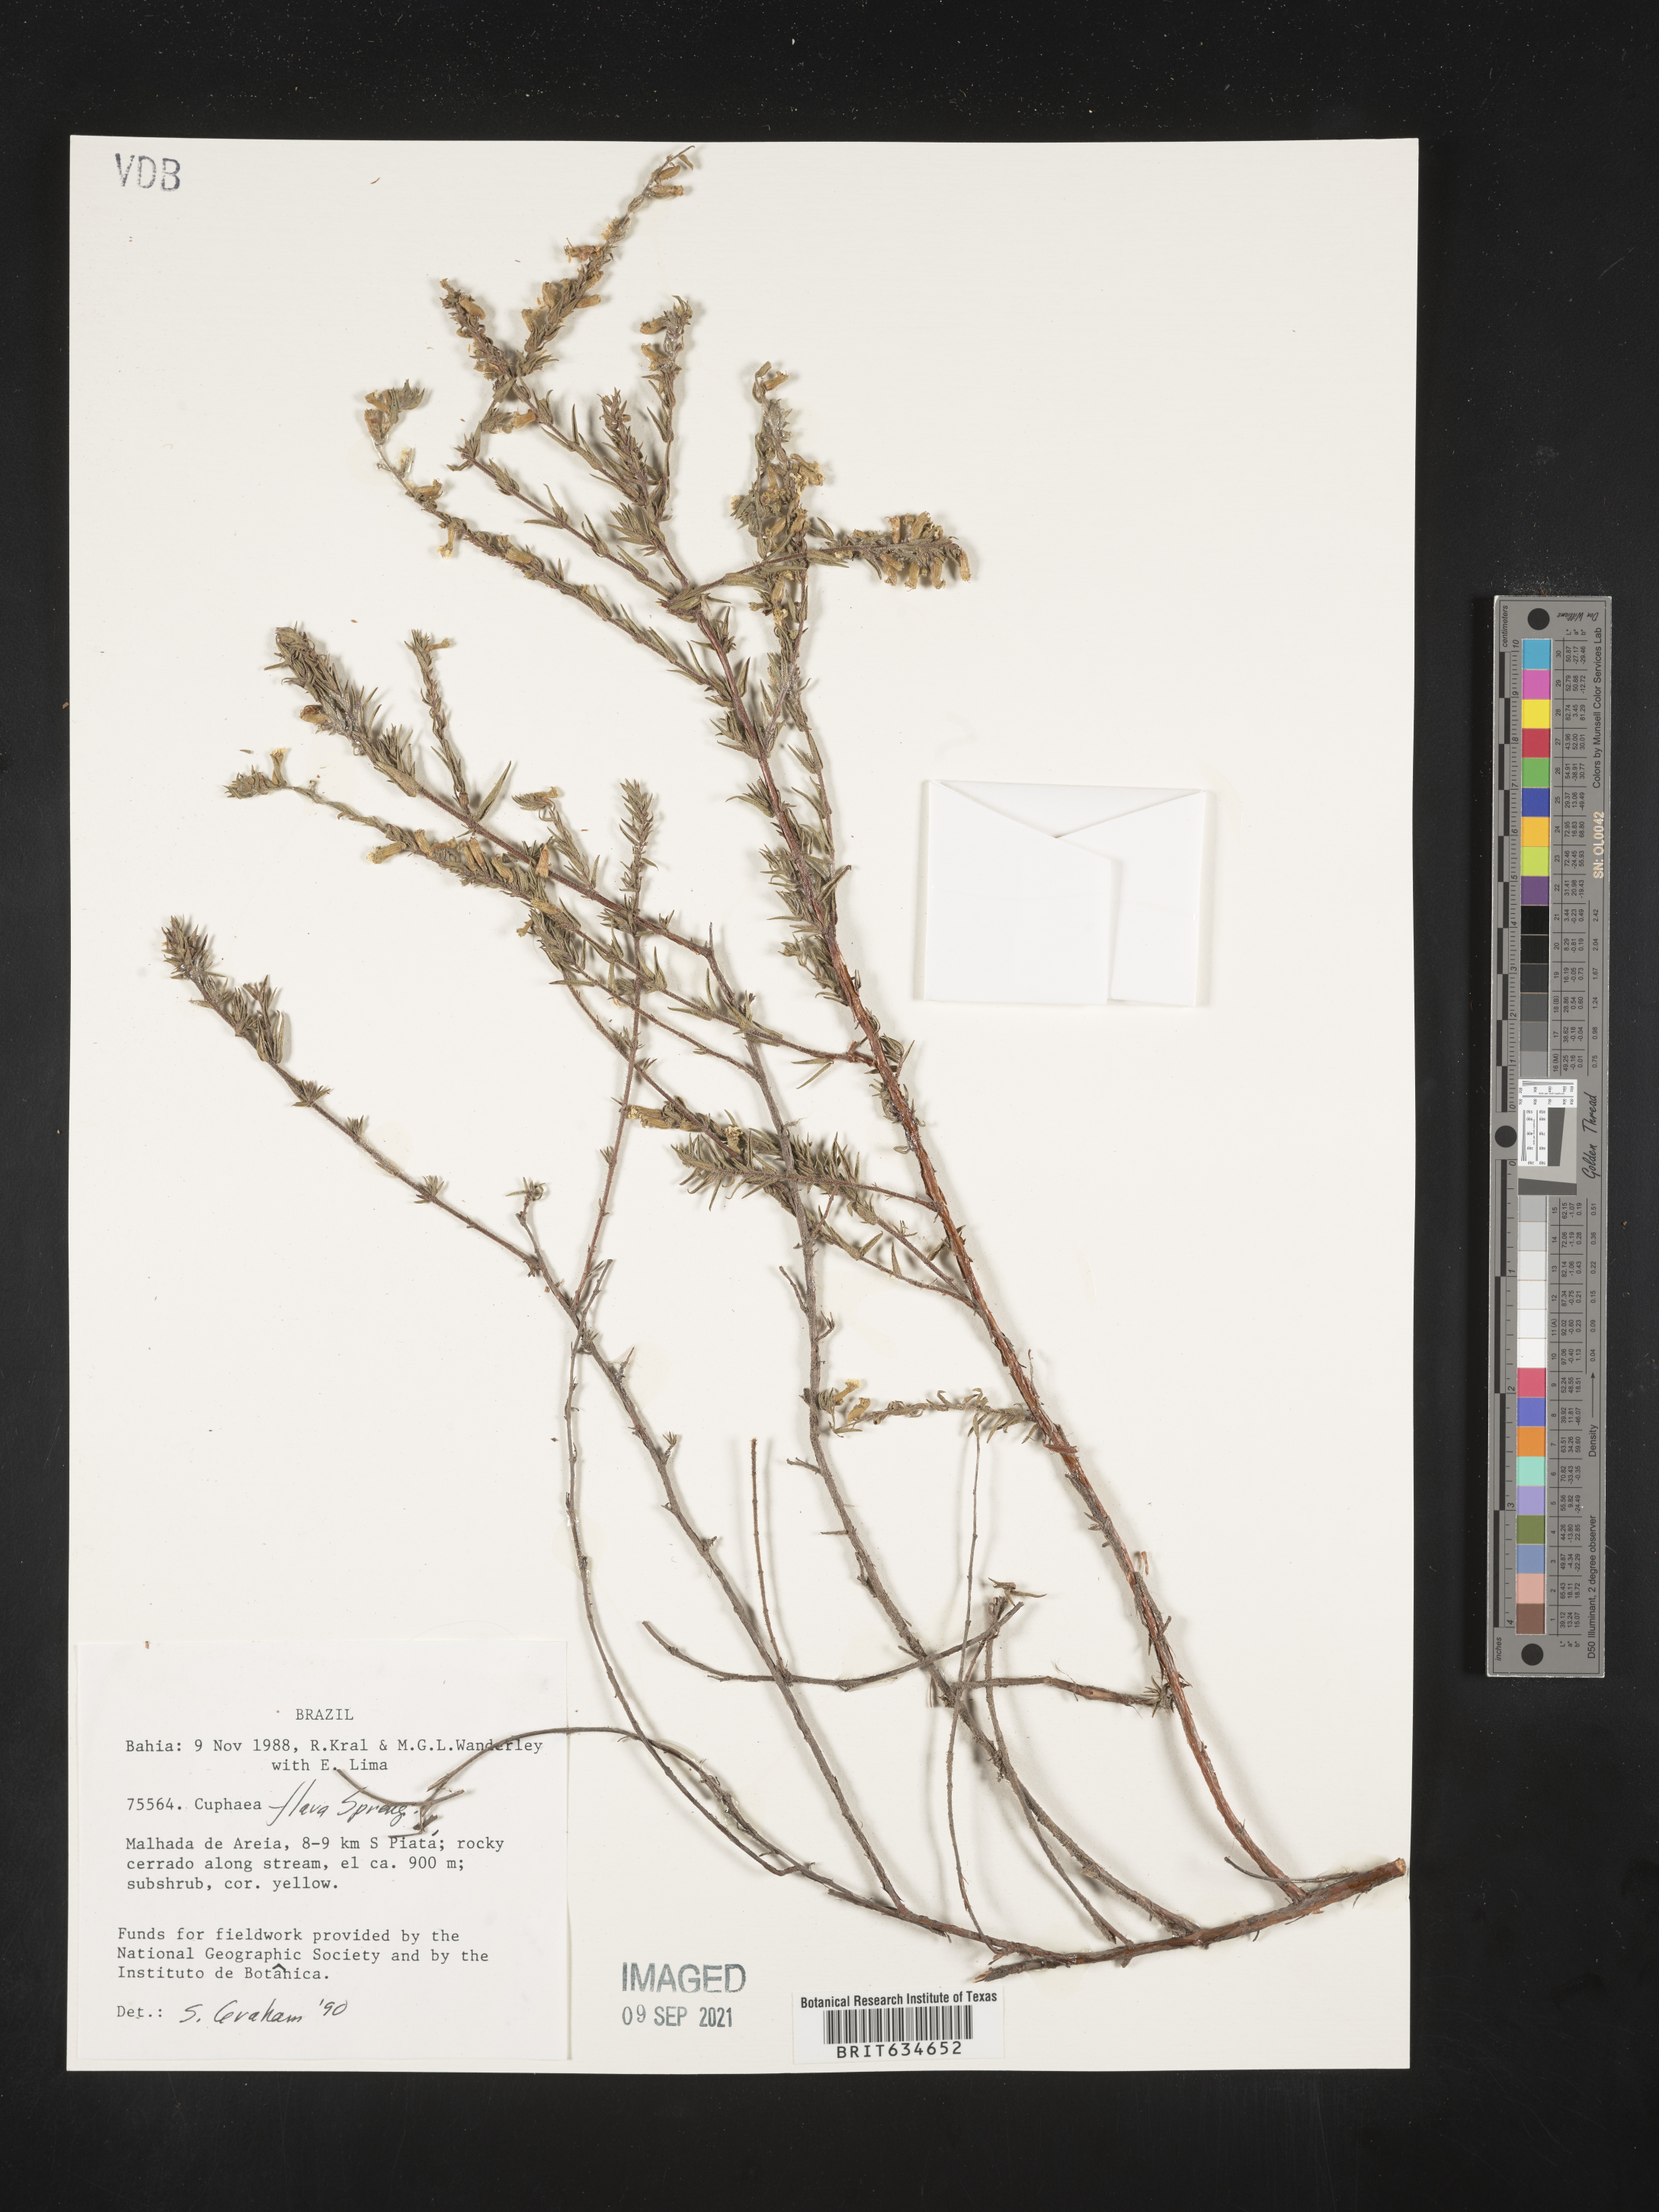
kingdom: Plantae
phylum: Tracheophyta
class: Magnoliopsida
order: Myrtales
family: Lythraceae
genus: Cuphea
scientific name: Cuphea
